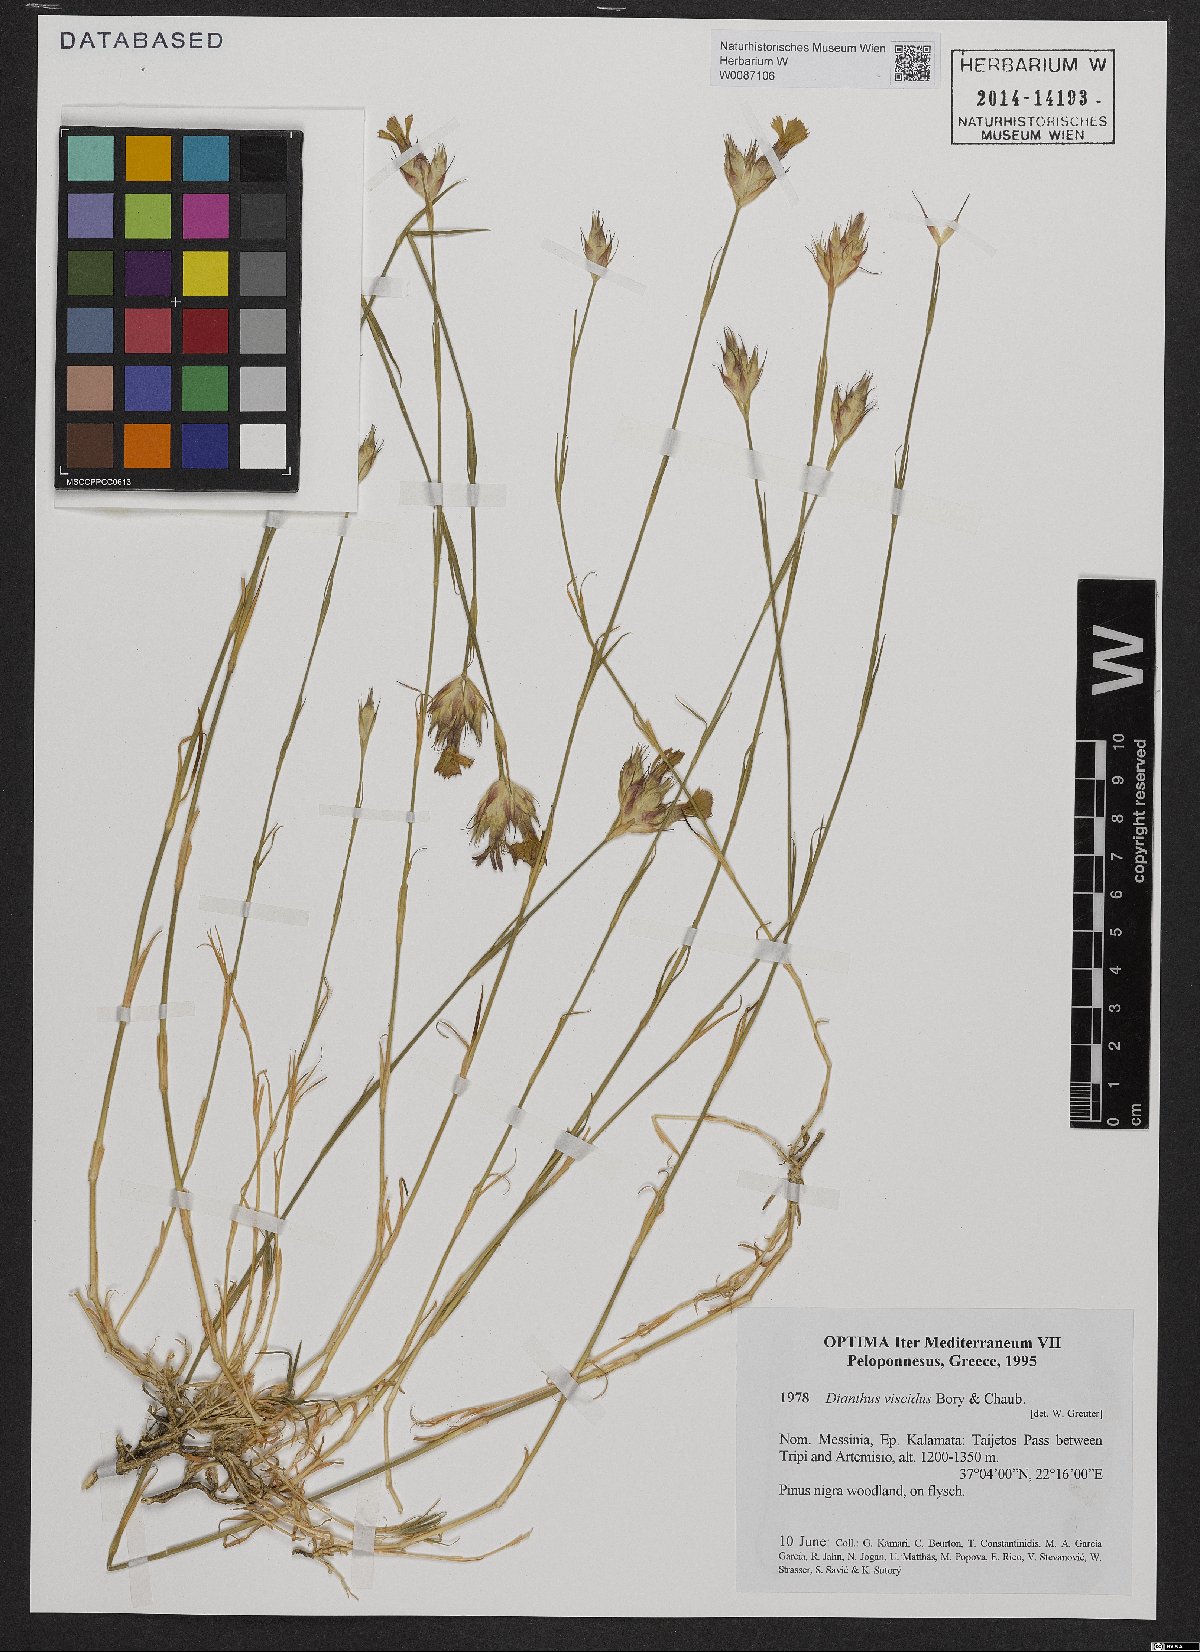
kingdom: Plantae
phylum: Tracheophyta
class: Magnoliopsida
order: Caryophyllales
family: Caryophyllaceae
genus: Dianthus
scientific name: Dianthus viscidus
